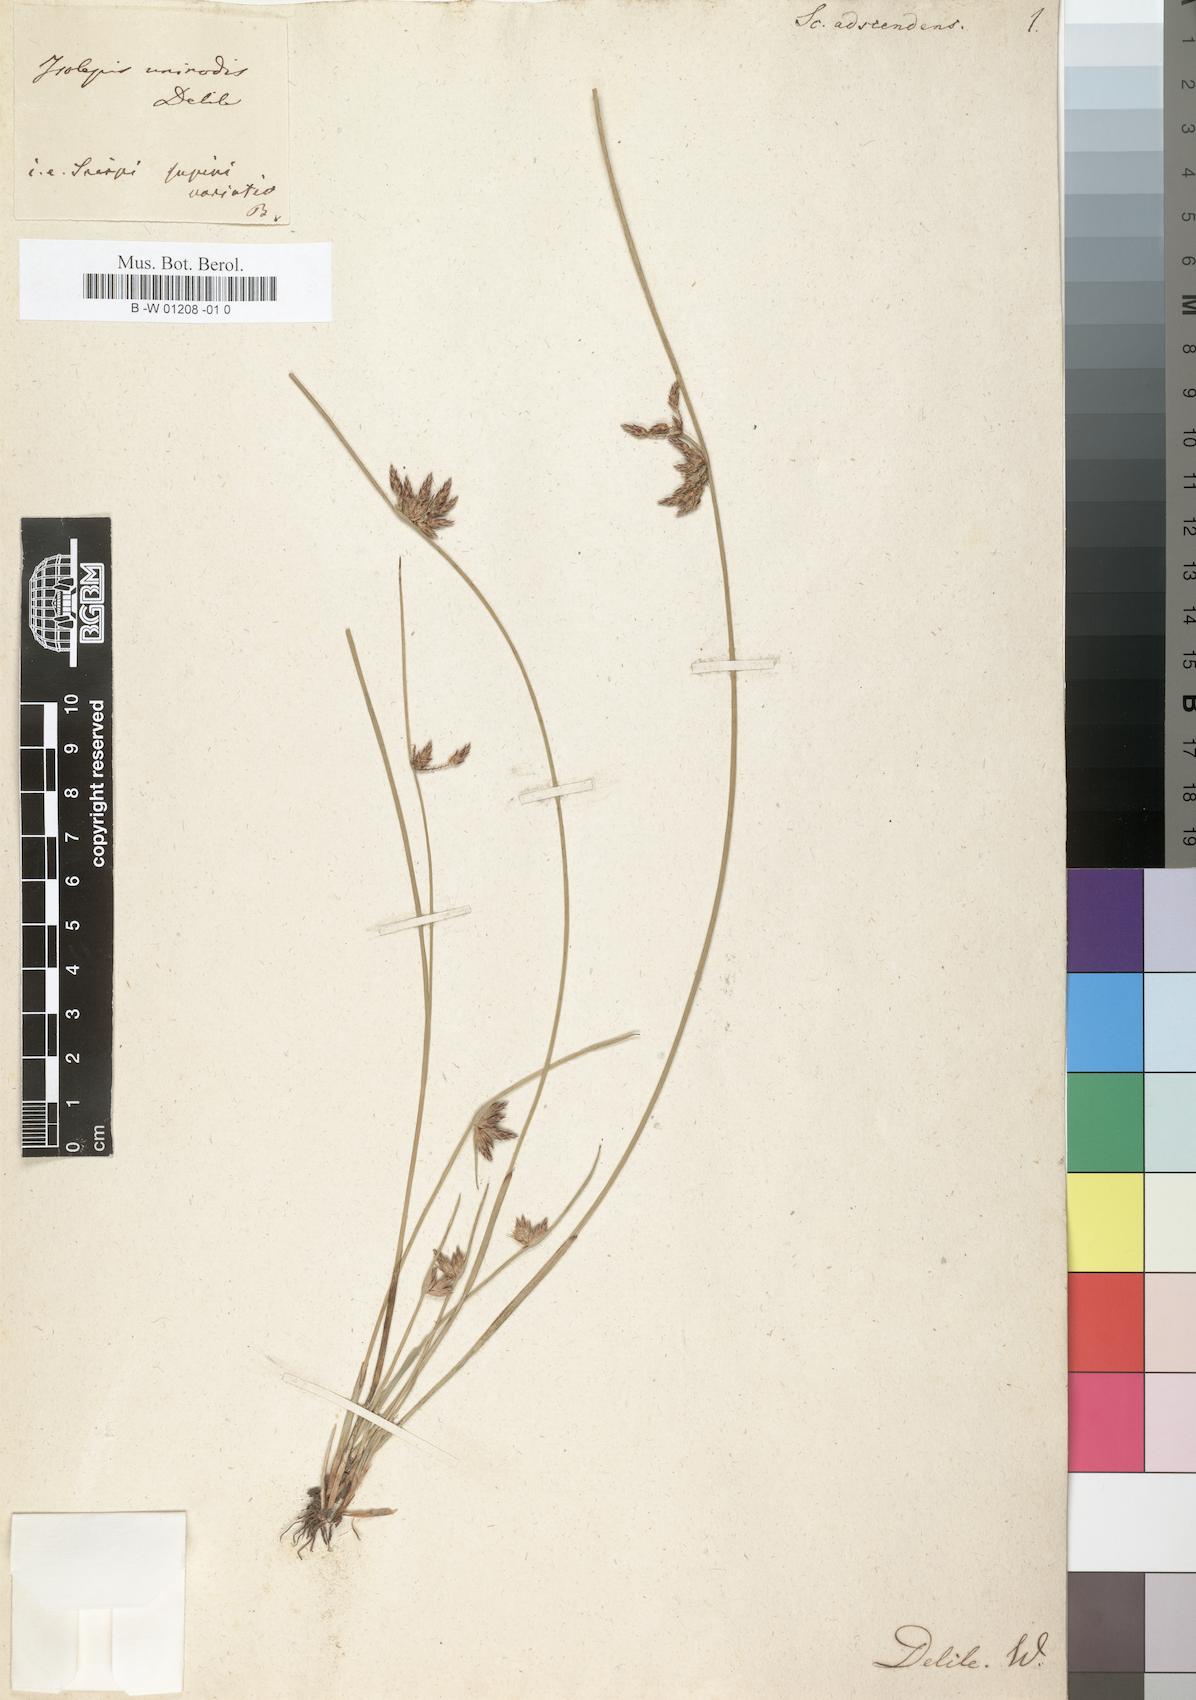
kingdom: Plantae
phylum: Tracheophyta
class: Liliopsida
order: Poales
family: Cyperaceae
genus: Schoenoplectiella
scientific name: Schoenoplectiella supina
